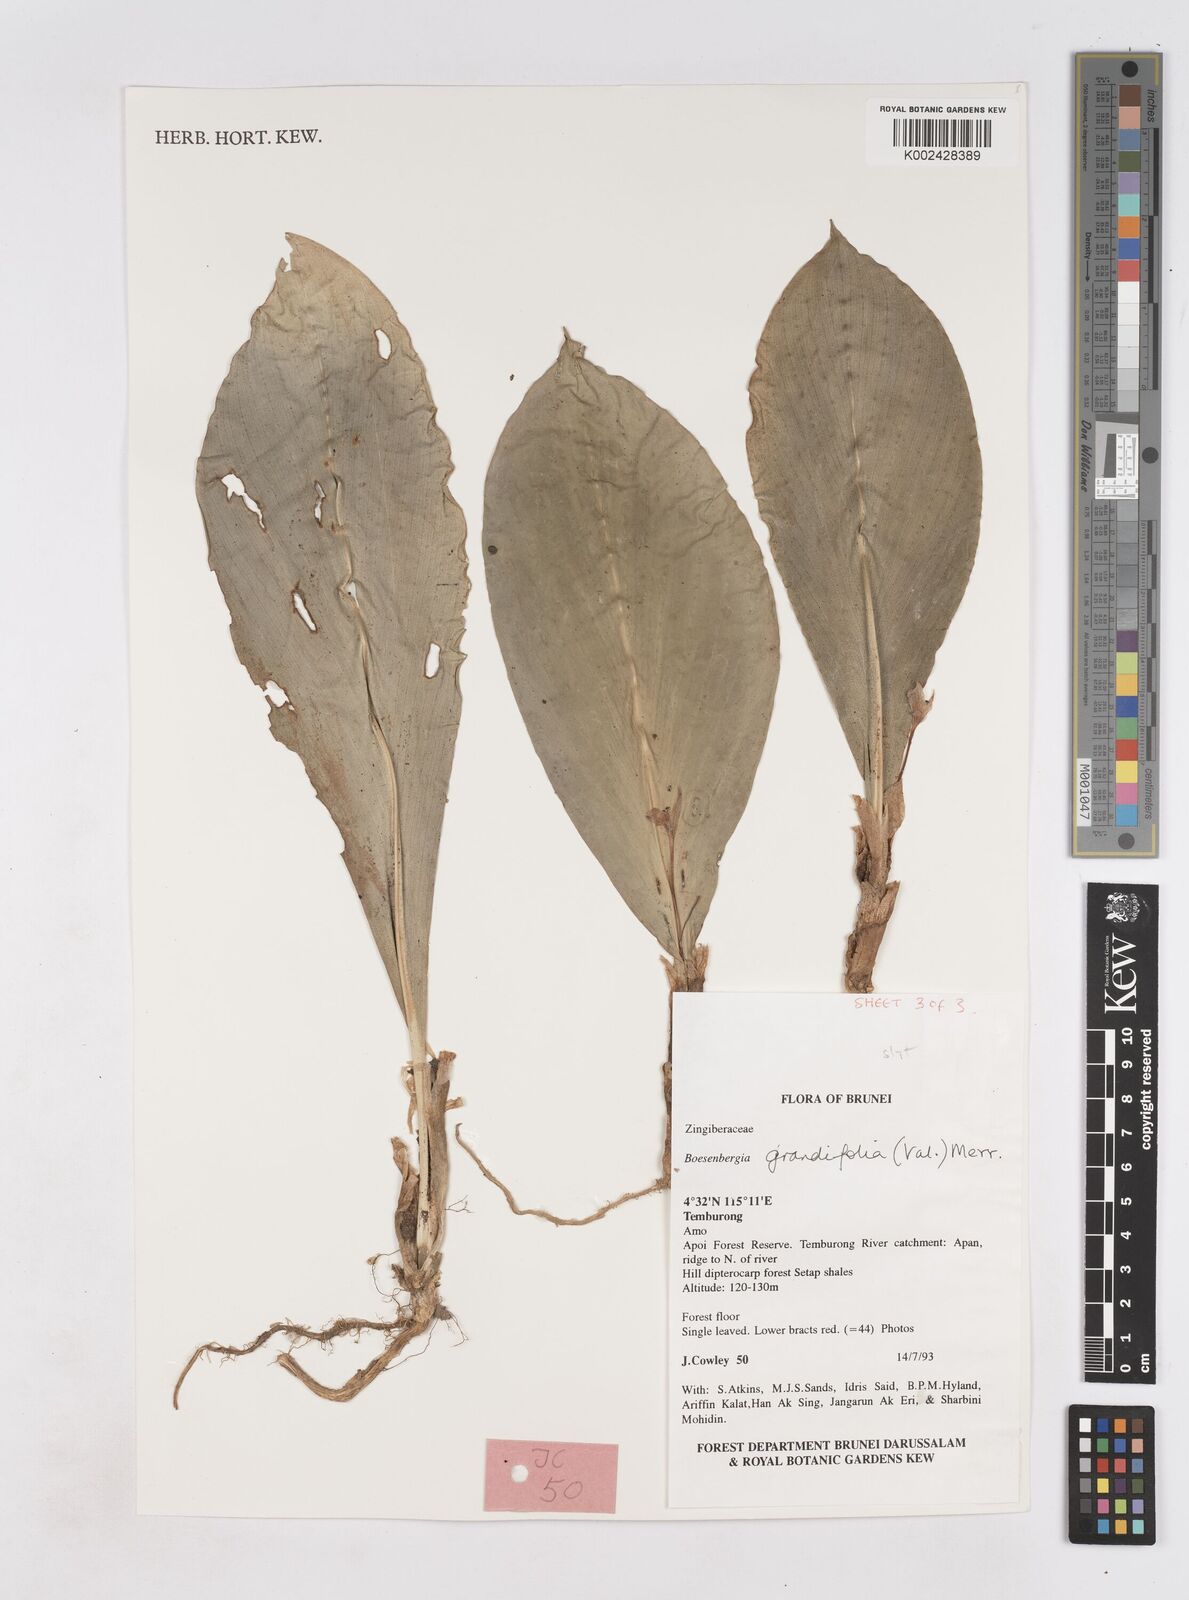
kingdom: Plantae
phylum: Tracheophyta
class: Liliopsida
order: Zingiberales
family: Zingiberaceae
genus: Boesenbergia
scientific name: Boesenbergia grandifolia
